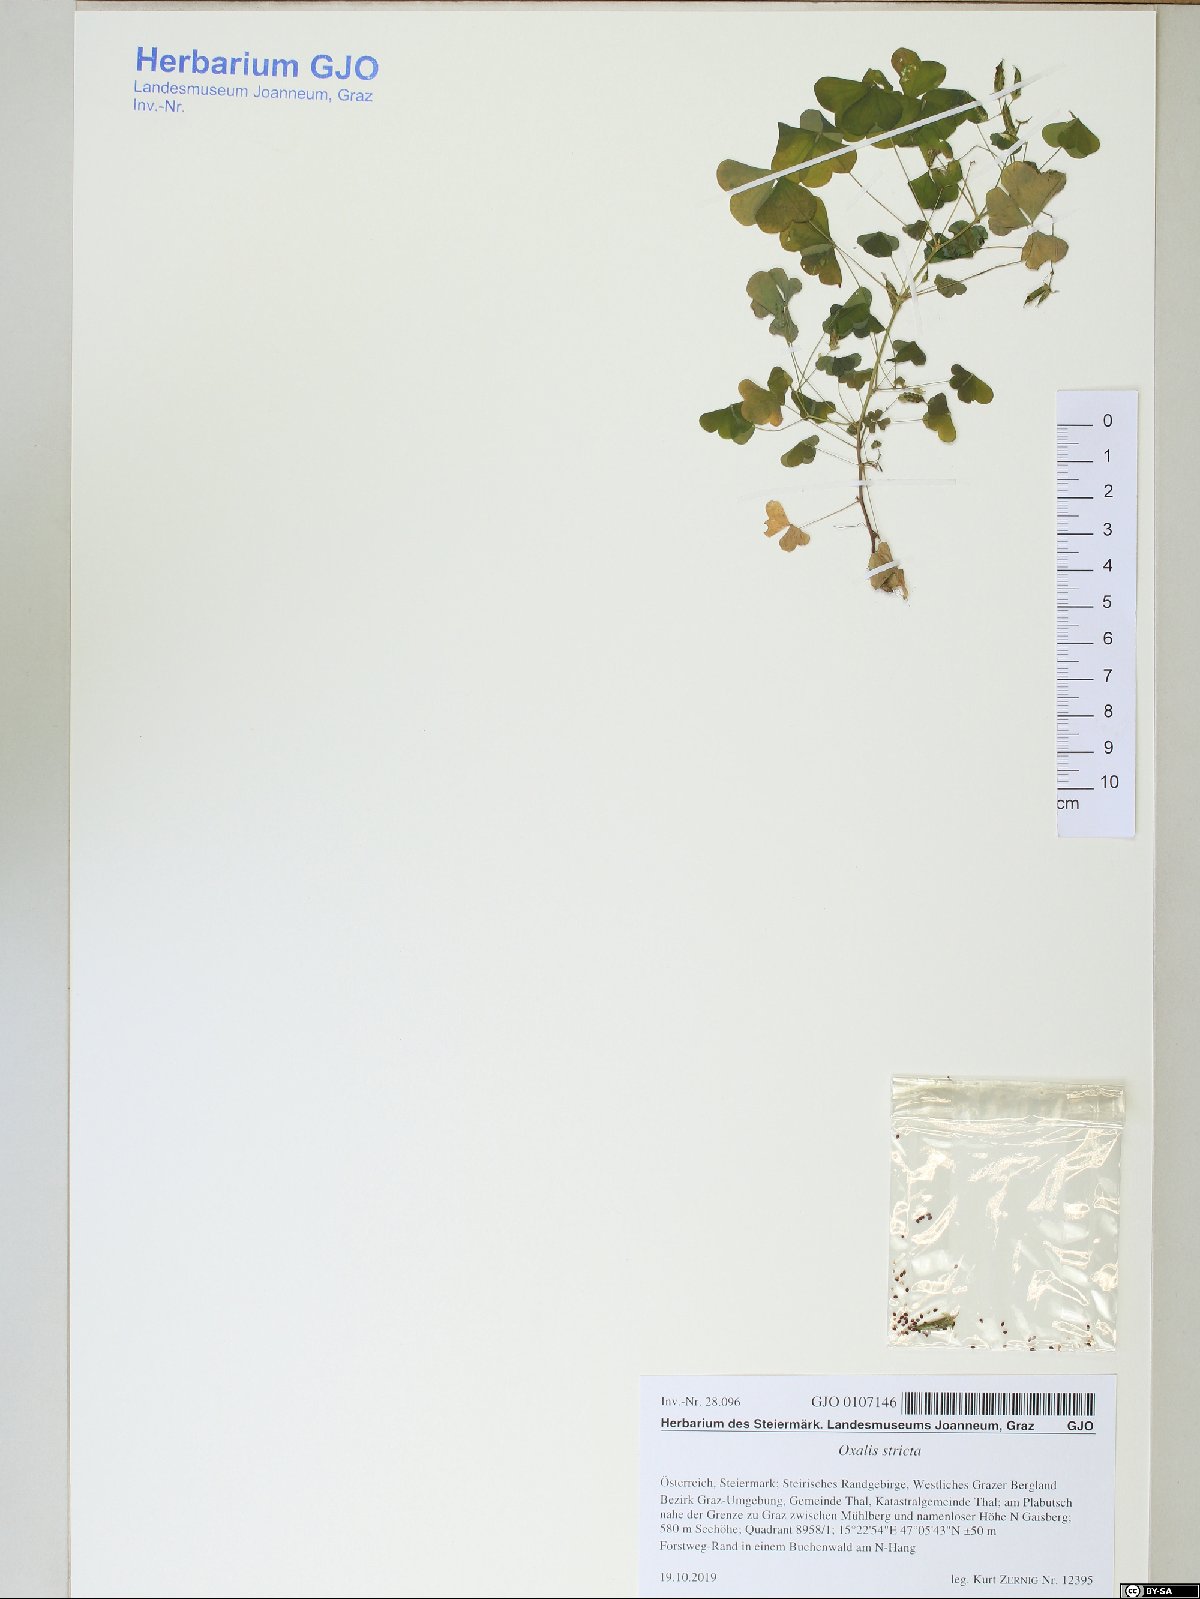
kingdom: Plantae
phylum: Tracheophyta
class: Magnoliopsida
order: Oxalidales
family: Oxalidaceae
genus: Oxalis
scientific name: Oxalis stricta
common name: Upright yellow-sorrel
